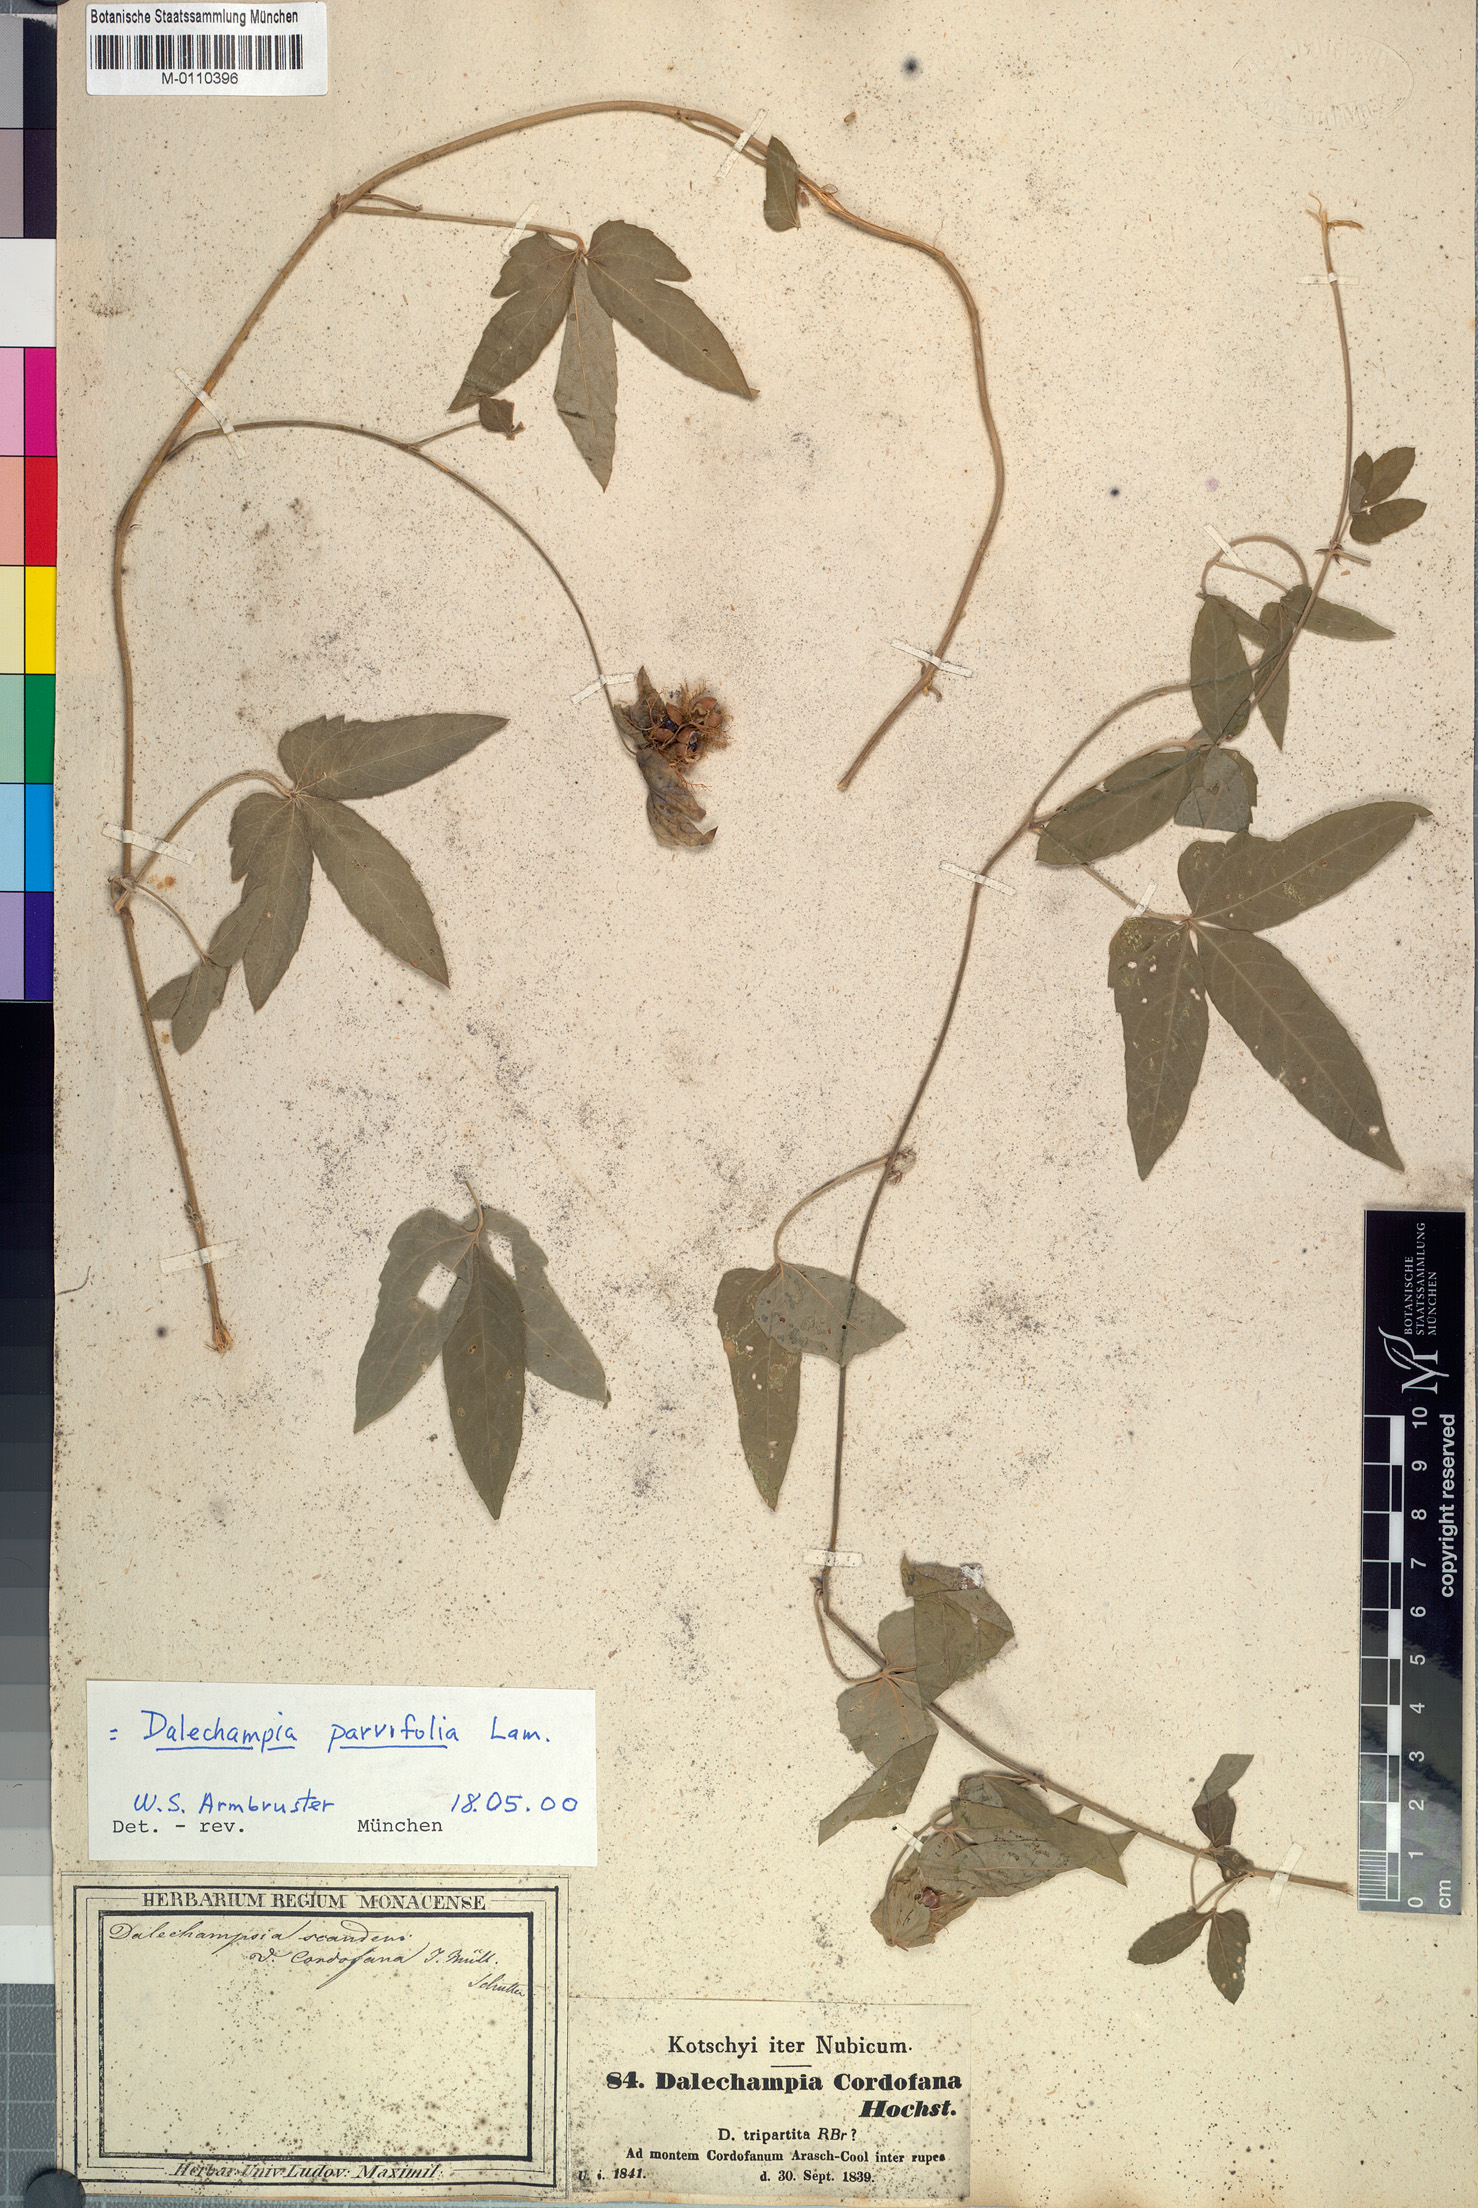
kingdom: Plantae
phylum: Tracheophyta
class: Magnoliopsida
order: Malpighiales
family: Euphorbiaceae
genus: Dalechampia
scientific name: Dalechampia scandens
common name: Spurgecreeper
